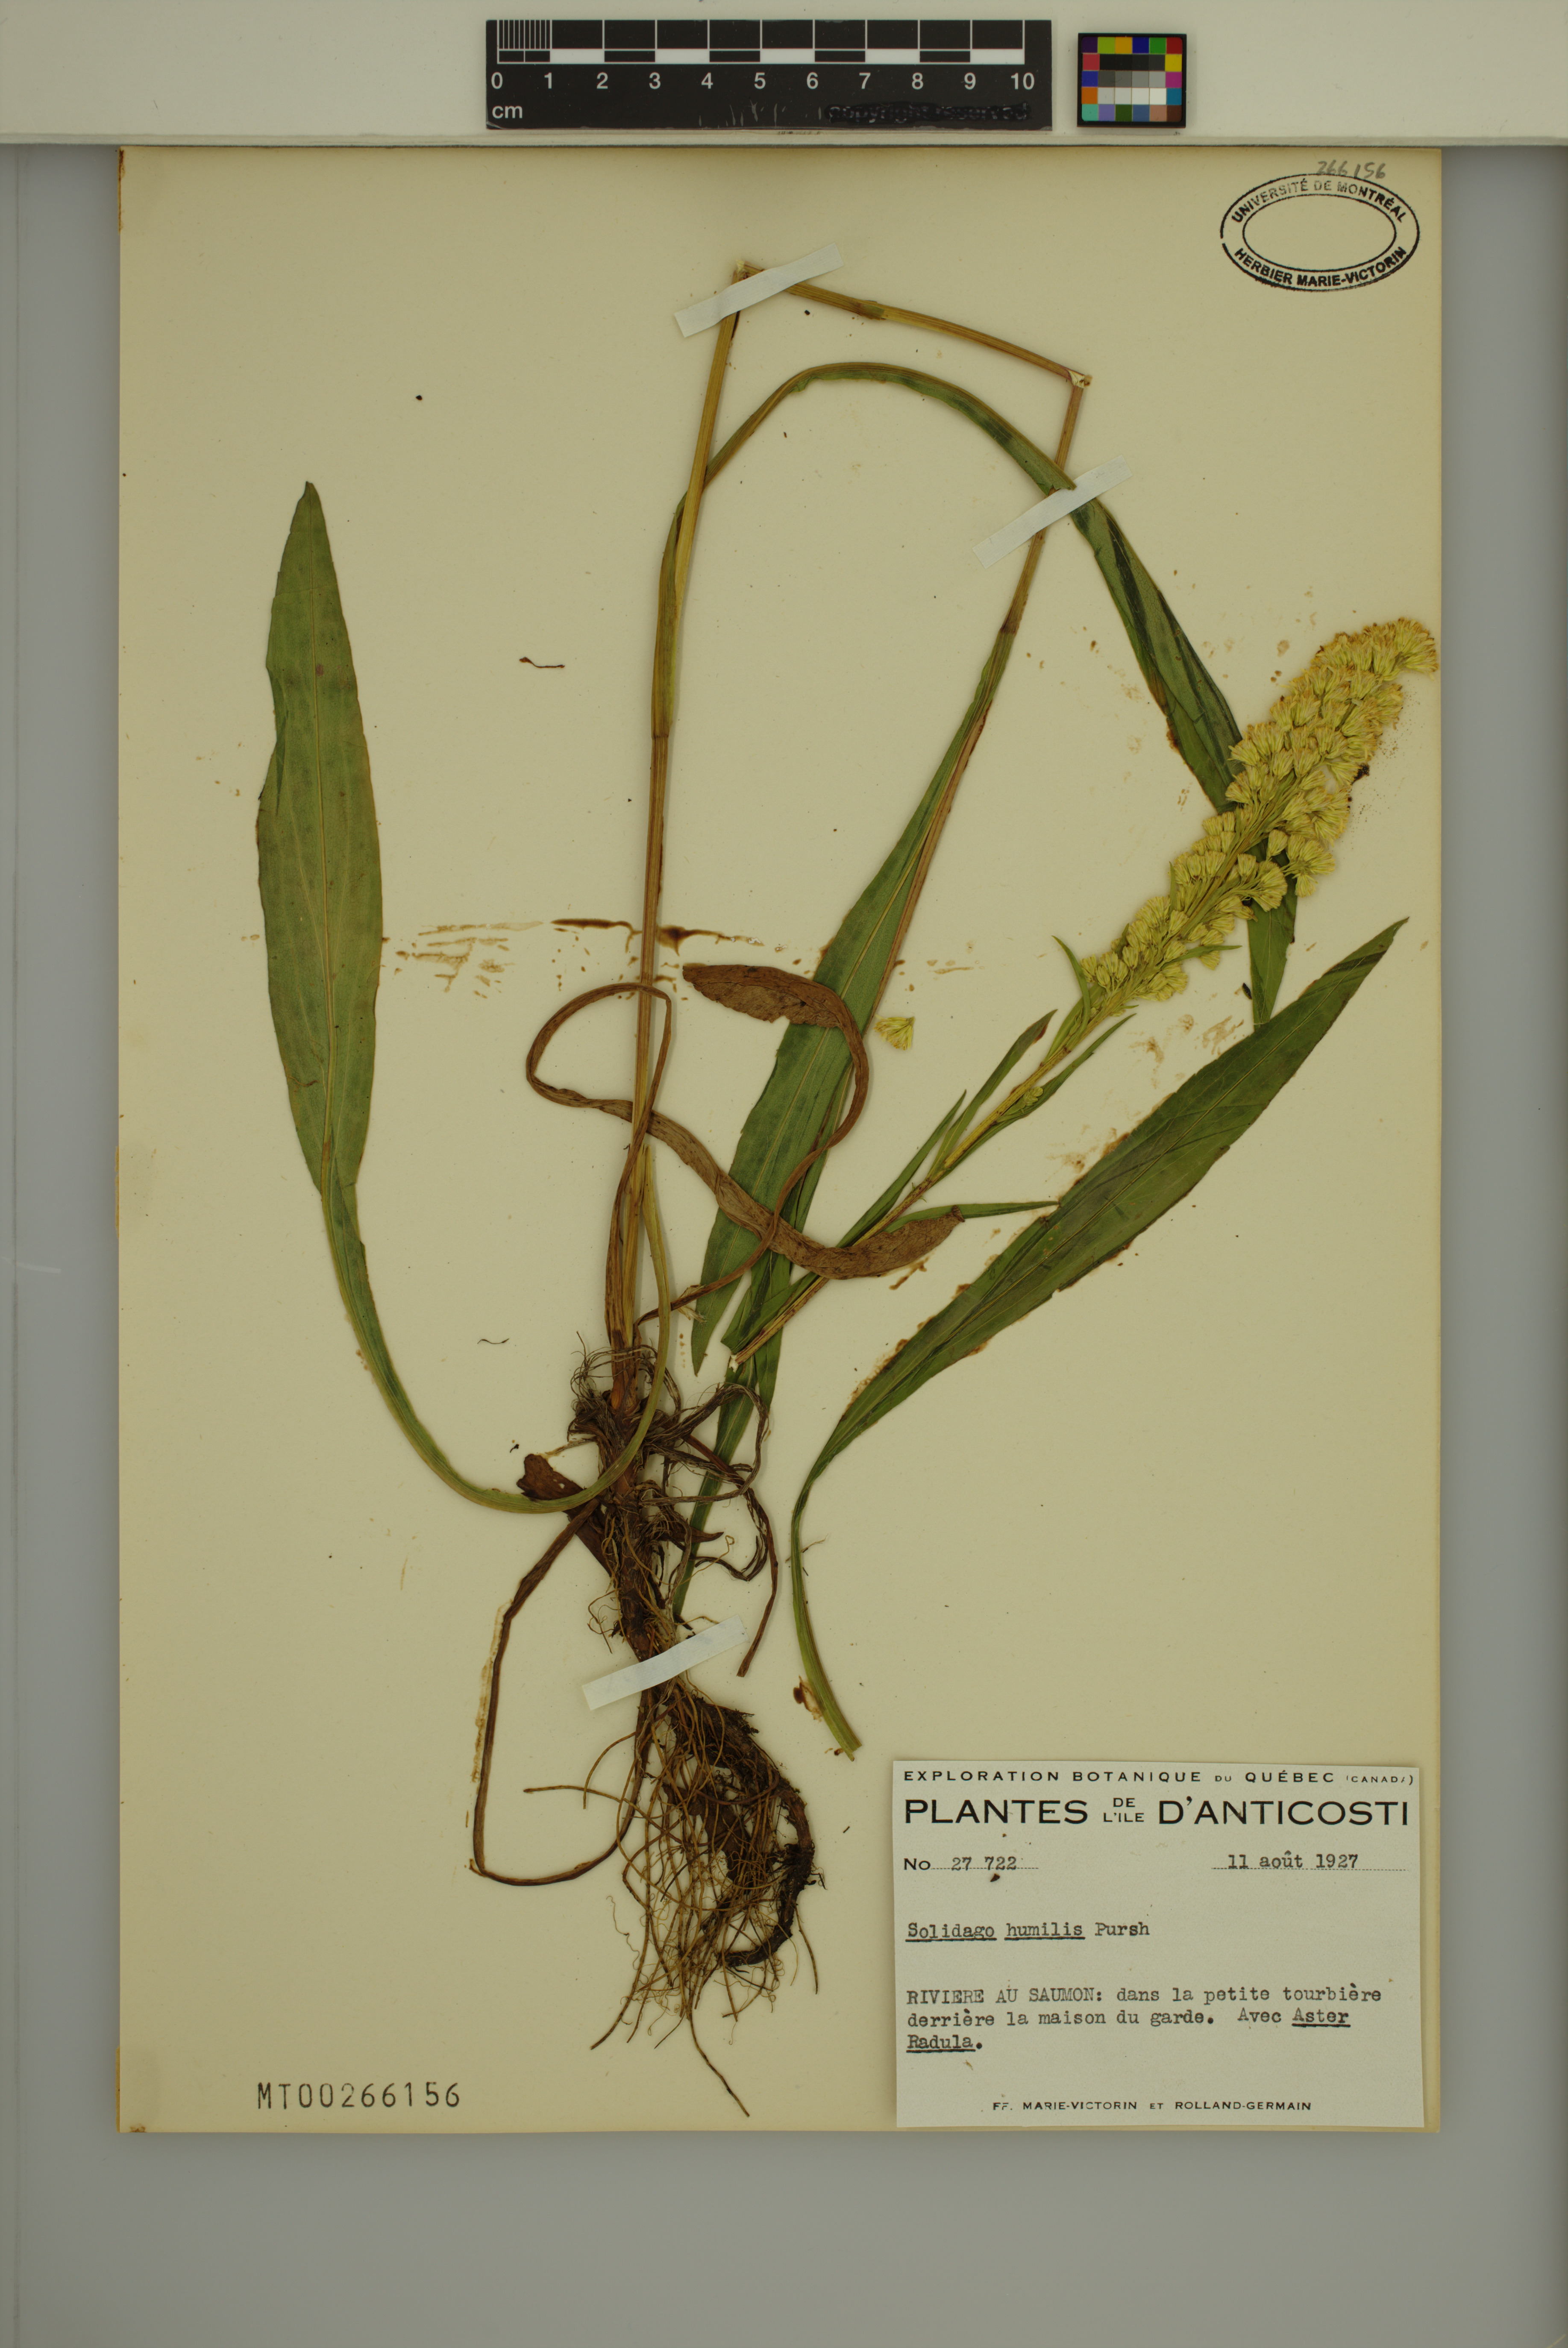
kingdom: Plantae
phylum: Tracheophyta
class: Magnoliopsida
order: Asterales
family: Asteraceae
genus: Solidago
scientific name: Solidago uliginosa
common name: Bog goldenrod
